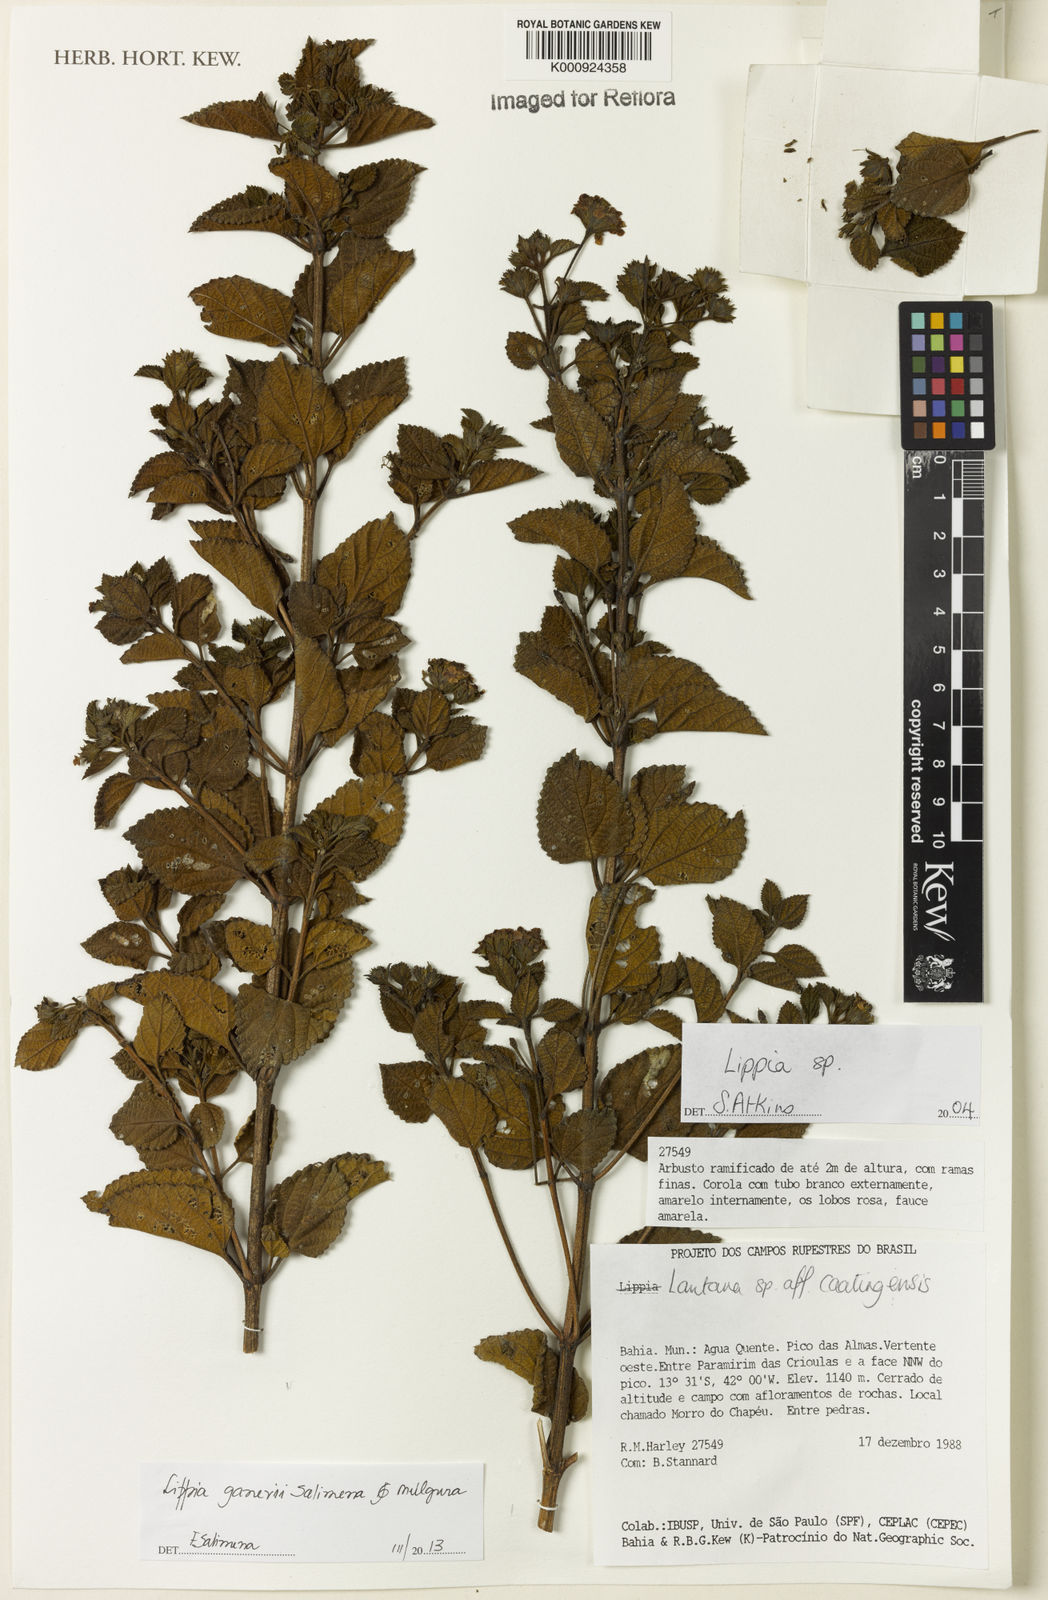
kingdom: Plantae
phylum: Tracheophyta
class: Magnoliopsida
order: Lamiales
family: Verbenaceae
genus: Lippia
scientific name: Lippia
